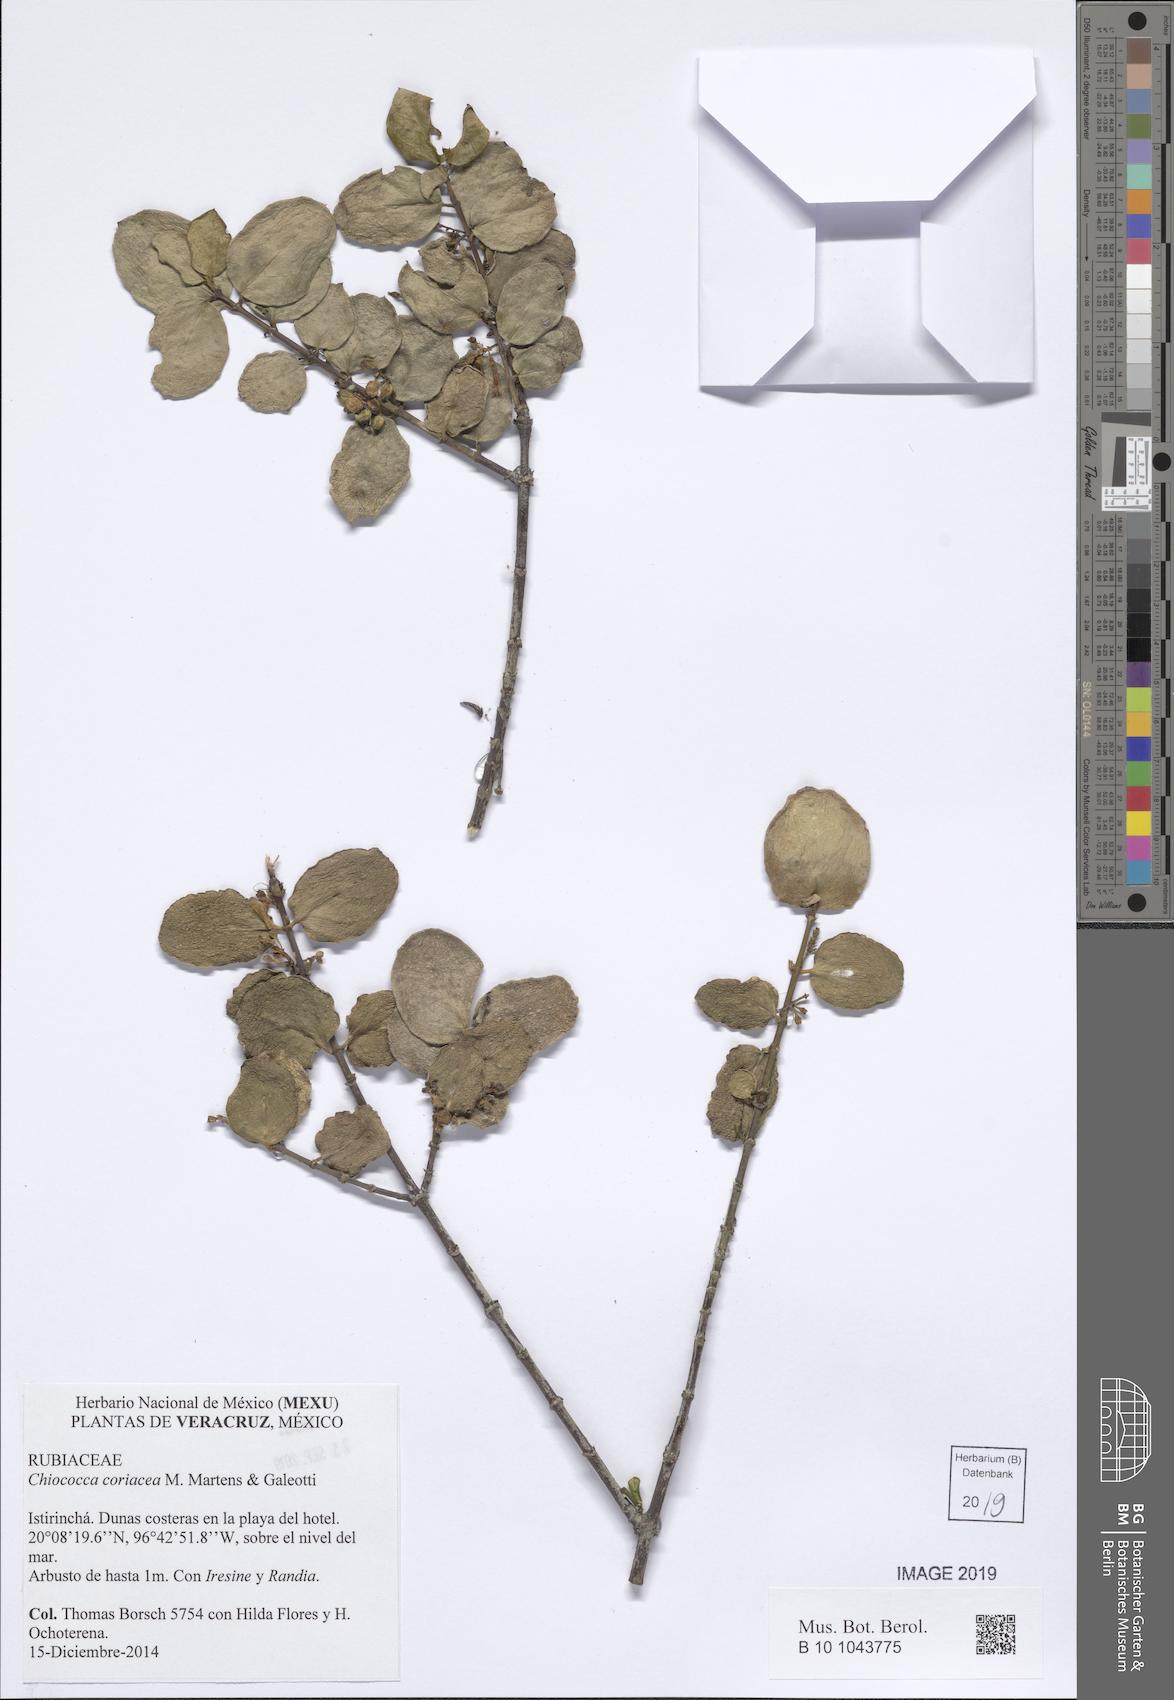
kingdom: Plantae
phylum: Tracheophyta
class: Magnoliopsida
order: Gentianales
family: Rubiaceae
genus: Chiococca
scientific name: Chiococca coriacea
